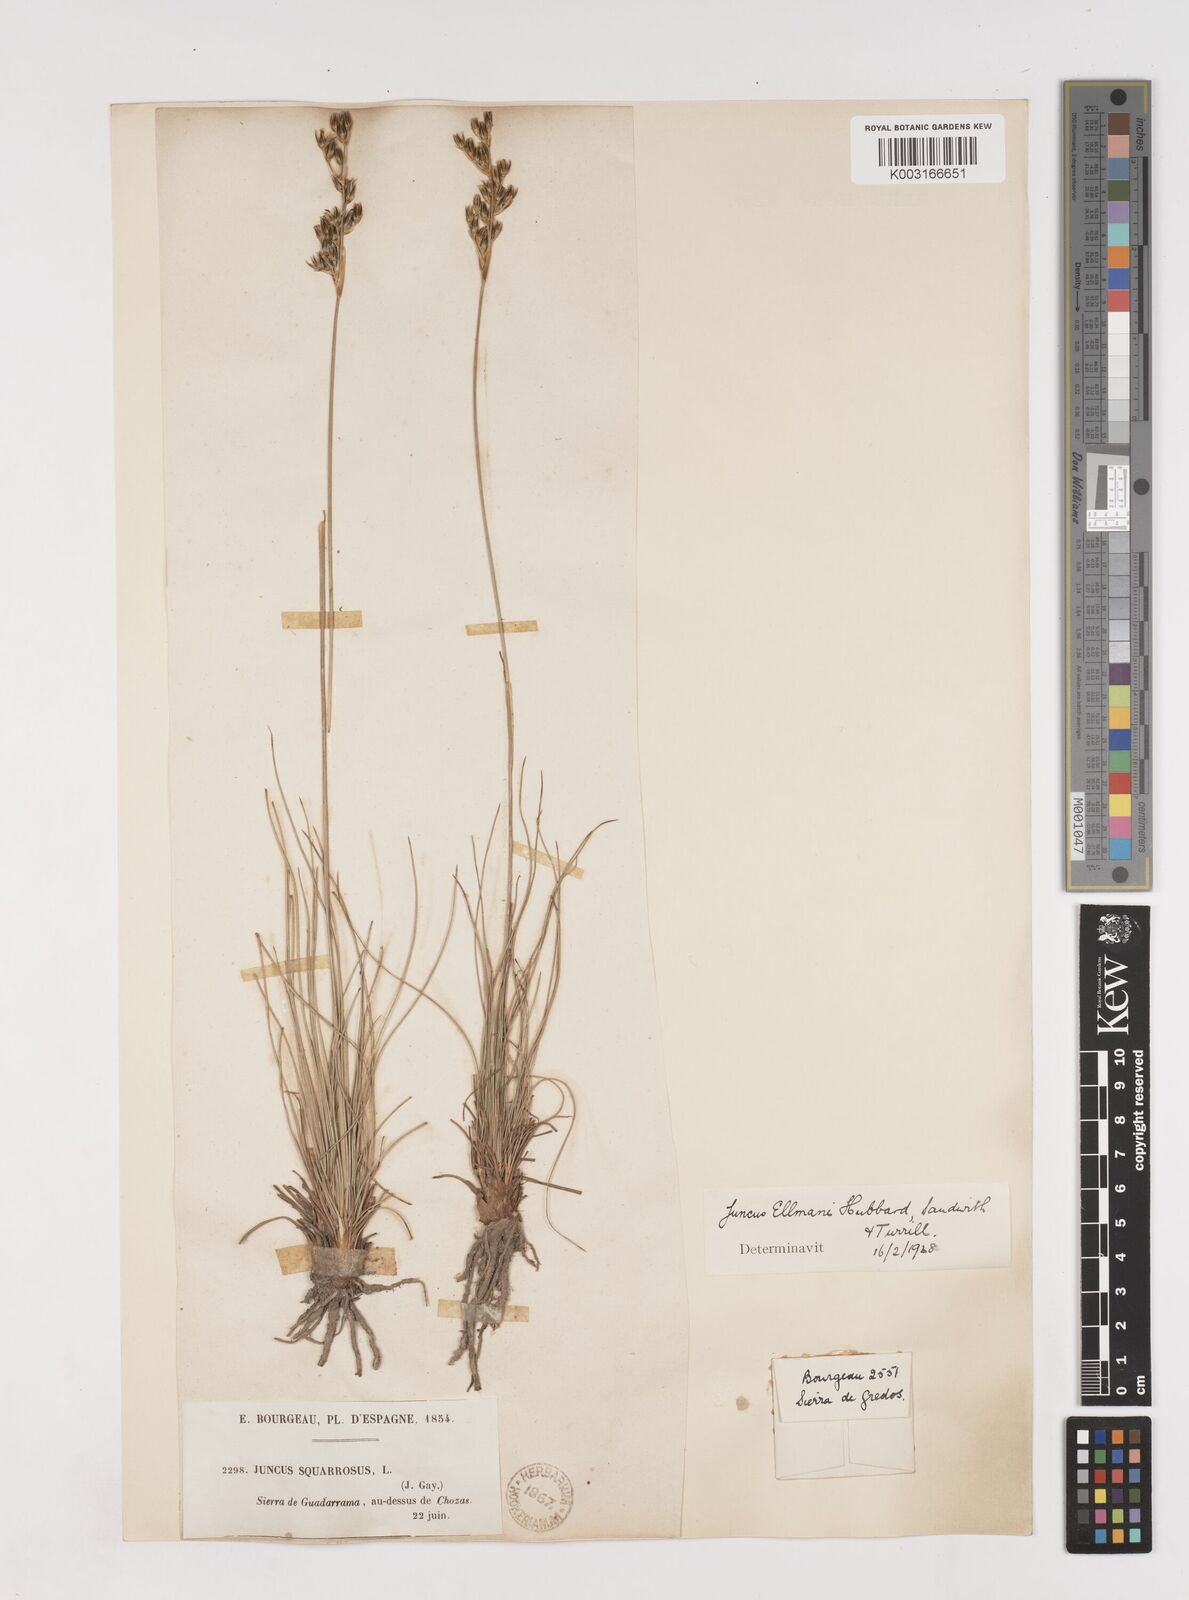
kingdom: Plantae
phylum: Tracheophyta
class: Liliopsida
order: Poales
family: Juncaceae
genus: Juncus
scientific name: Juncus squarrosus
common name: Heath rush
